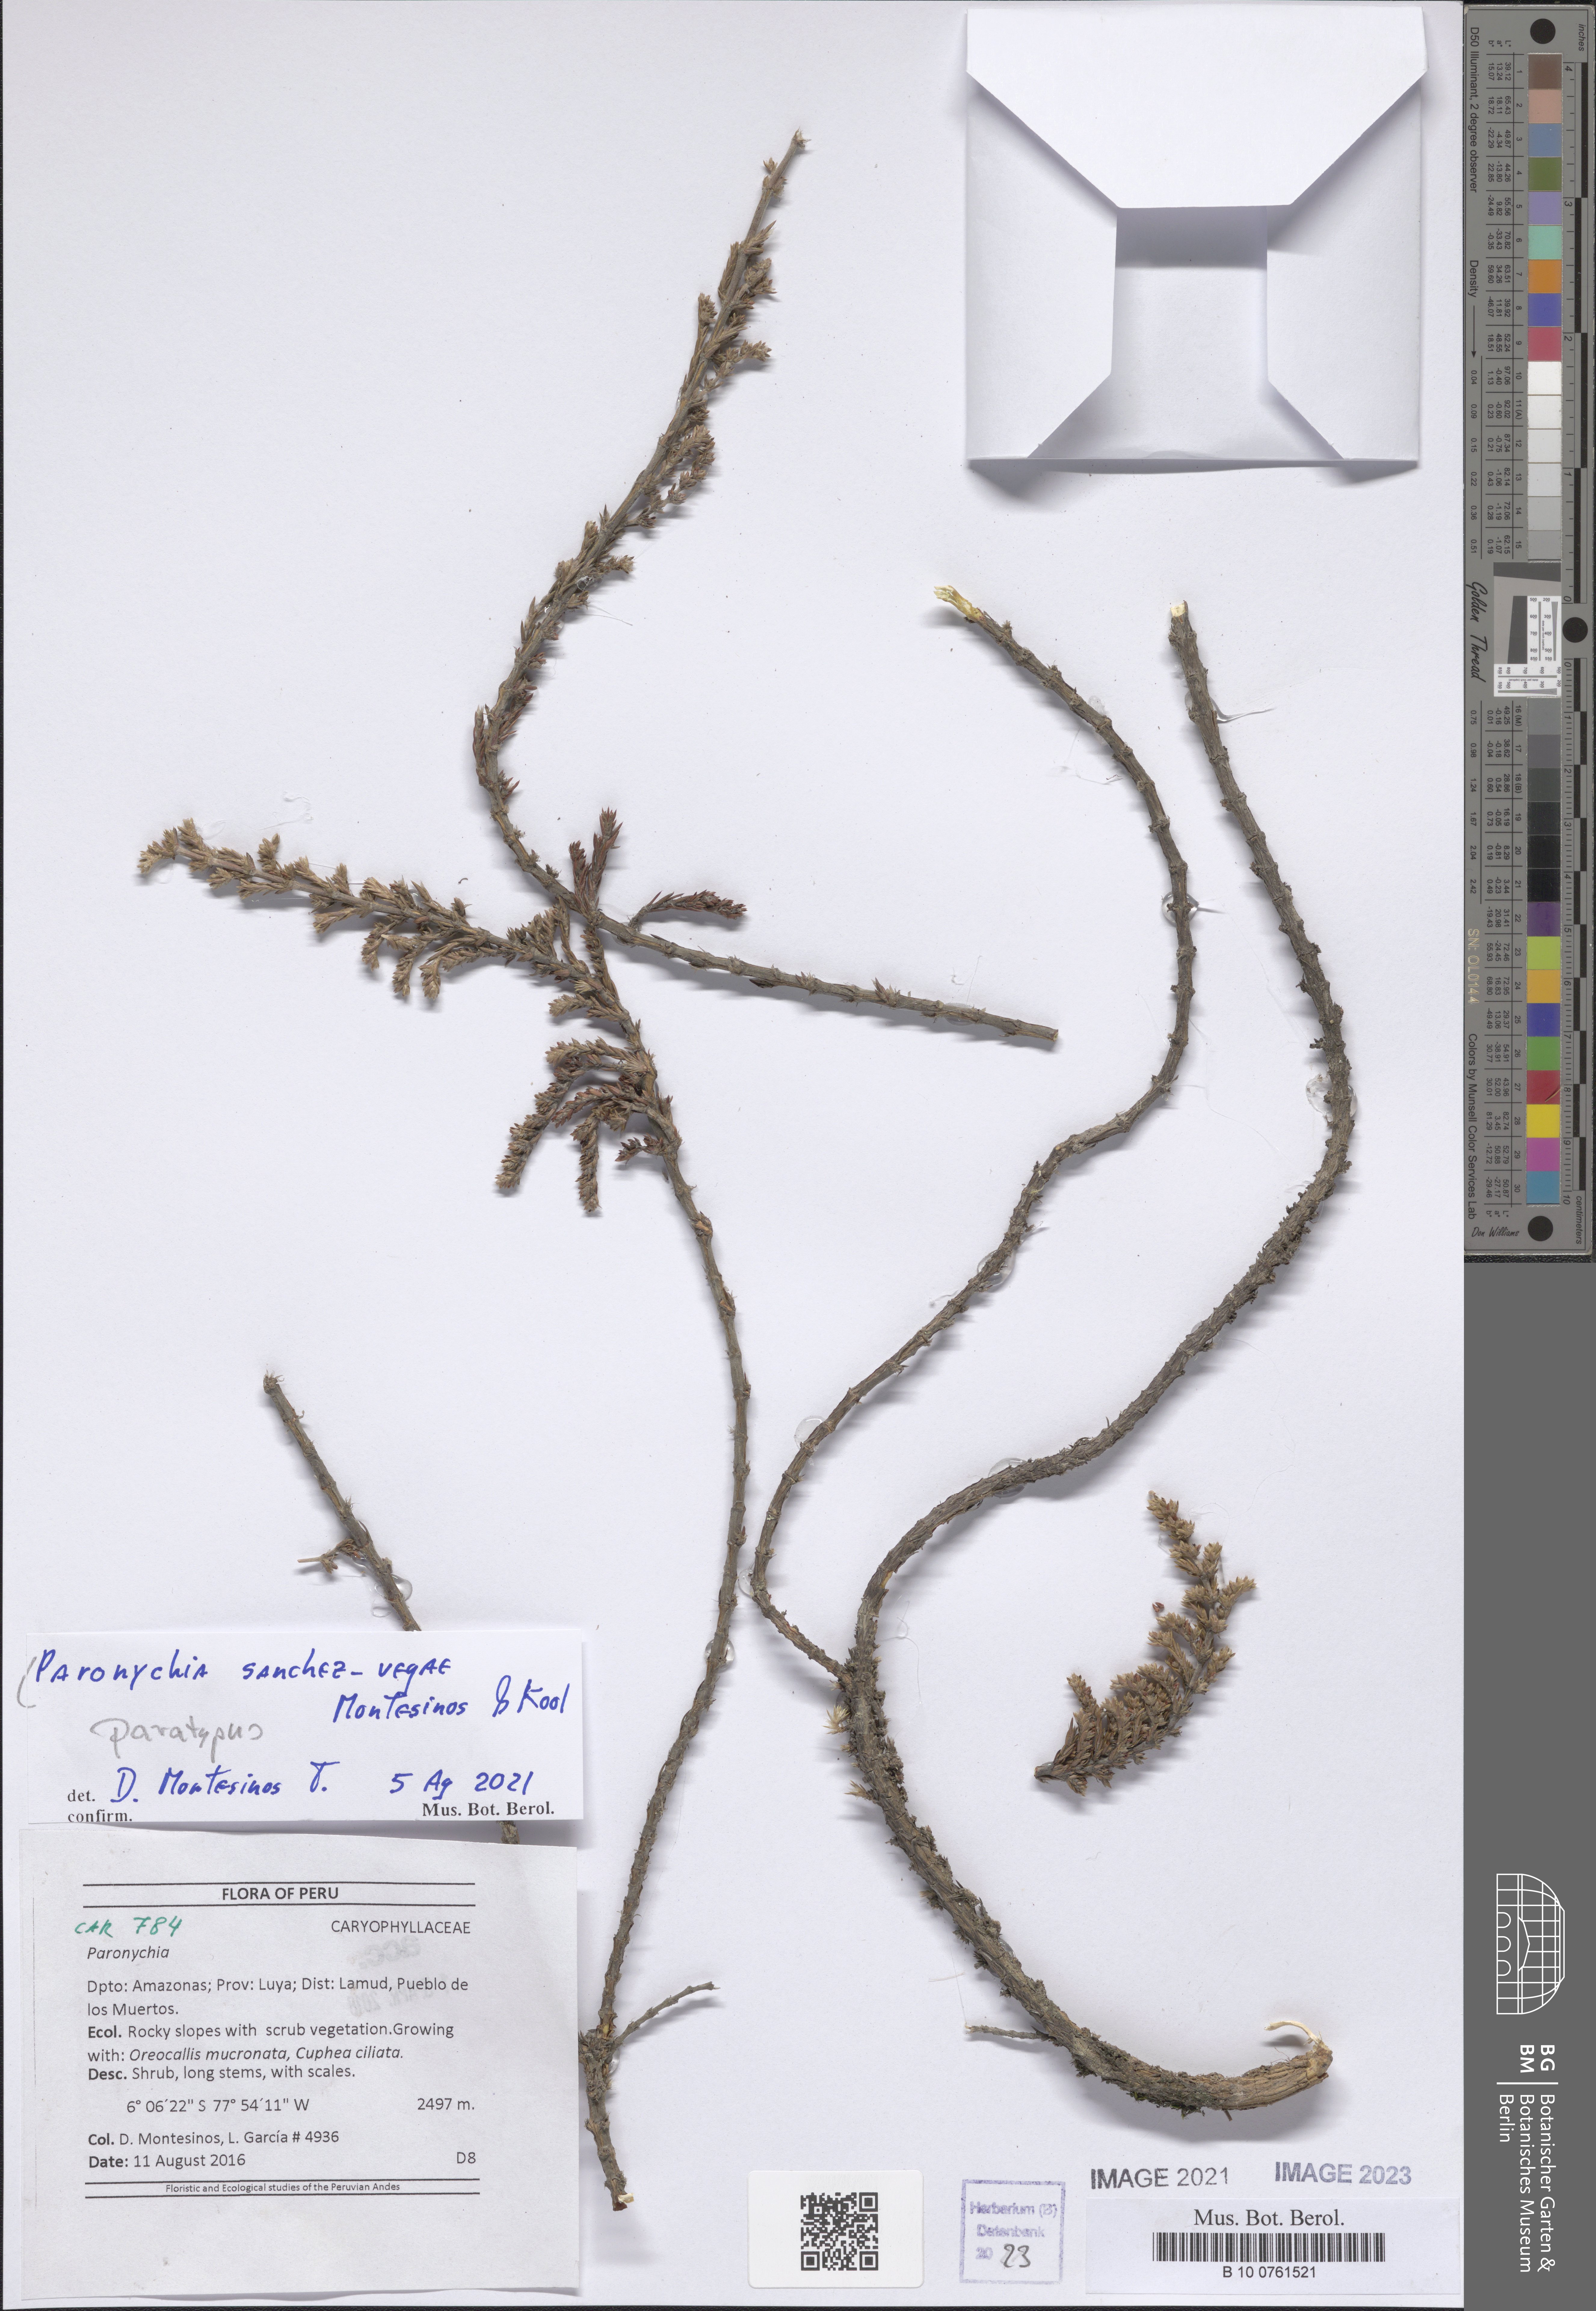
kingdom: Plantae
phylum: Tracheophyta
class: Magnoliopsida
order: Caryophyllales
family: Caryophyllaceae
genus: Paronychia
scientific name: Paronychia sanchez-vegae
